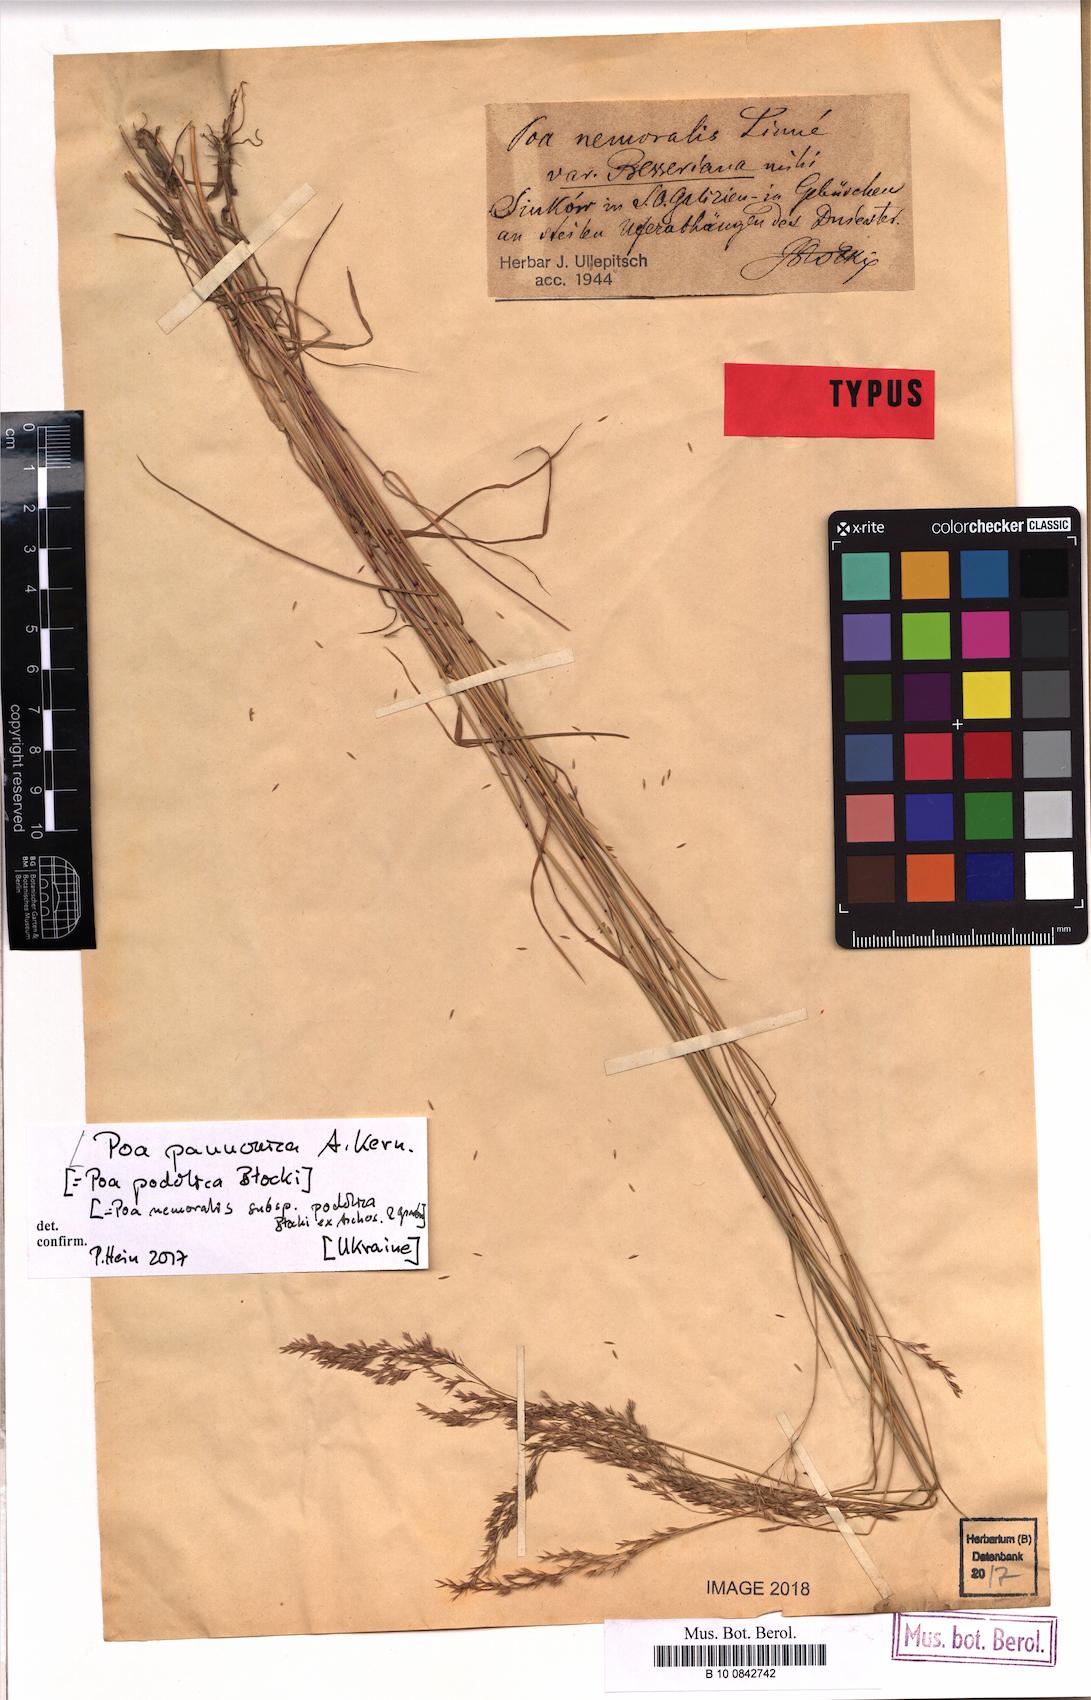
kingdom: Plantae
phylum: Tracheophyta
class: Liliopsida
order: Poales
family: Poaceae
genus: Poa
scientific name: Poa pannonica
